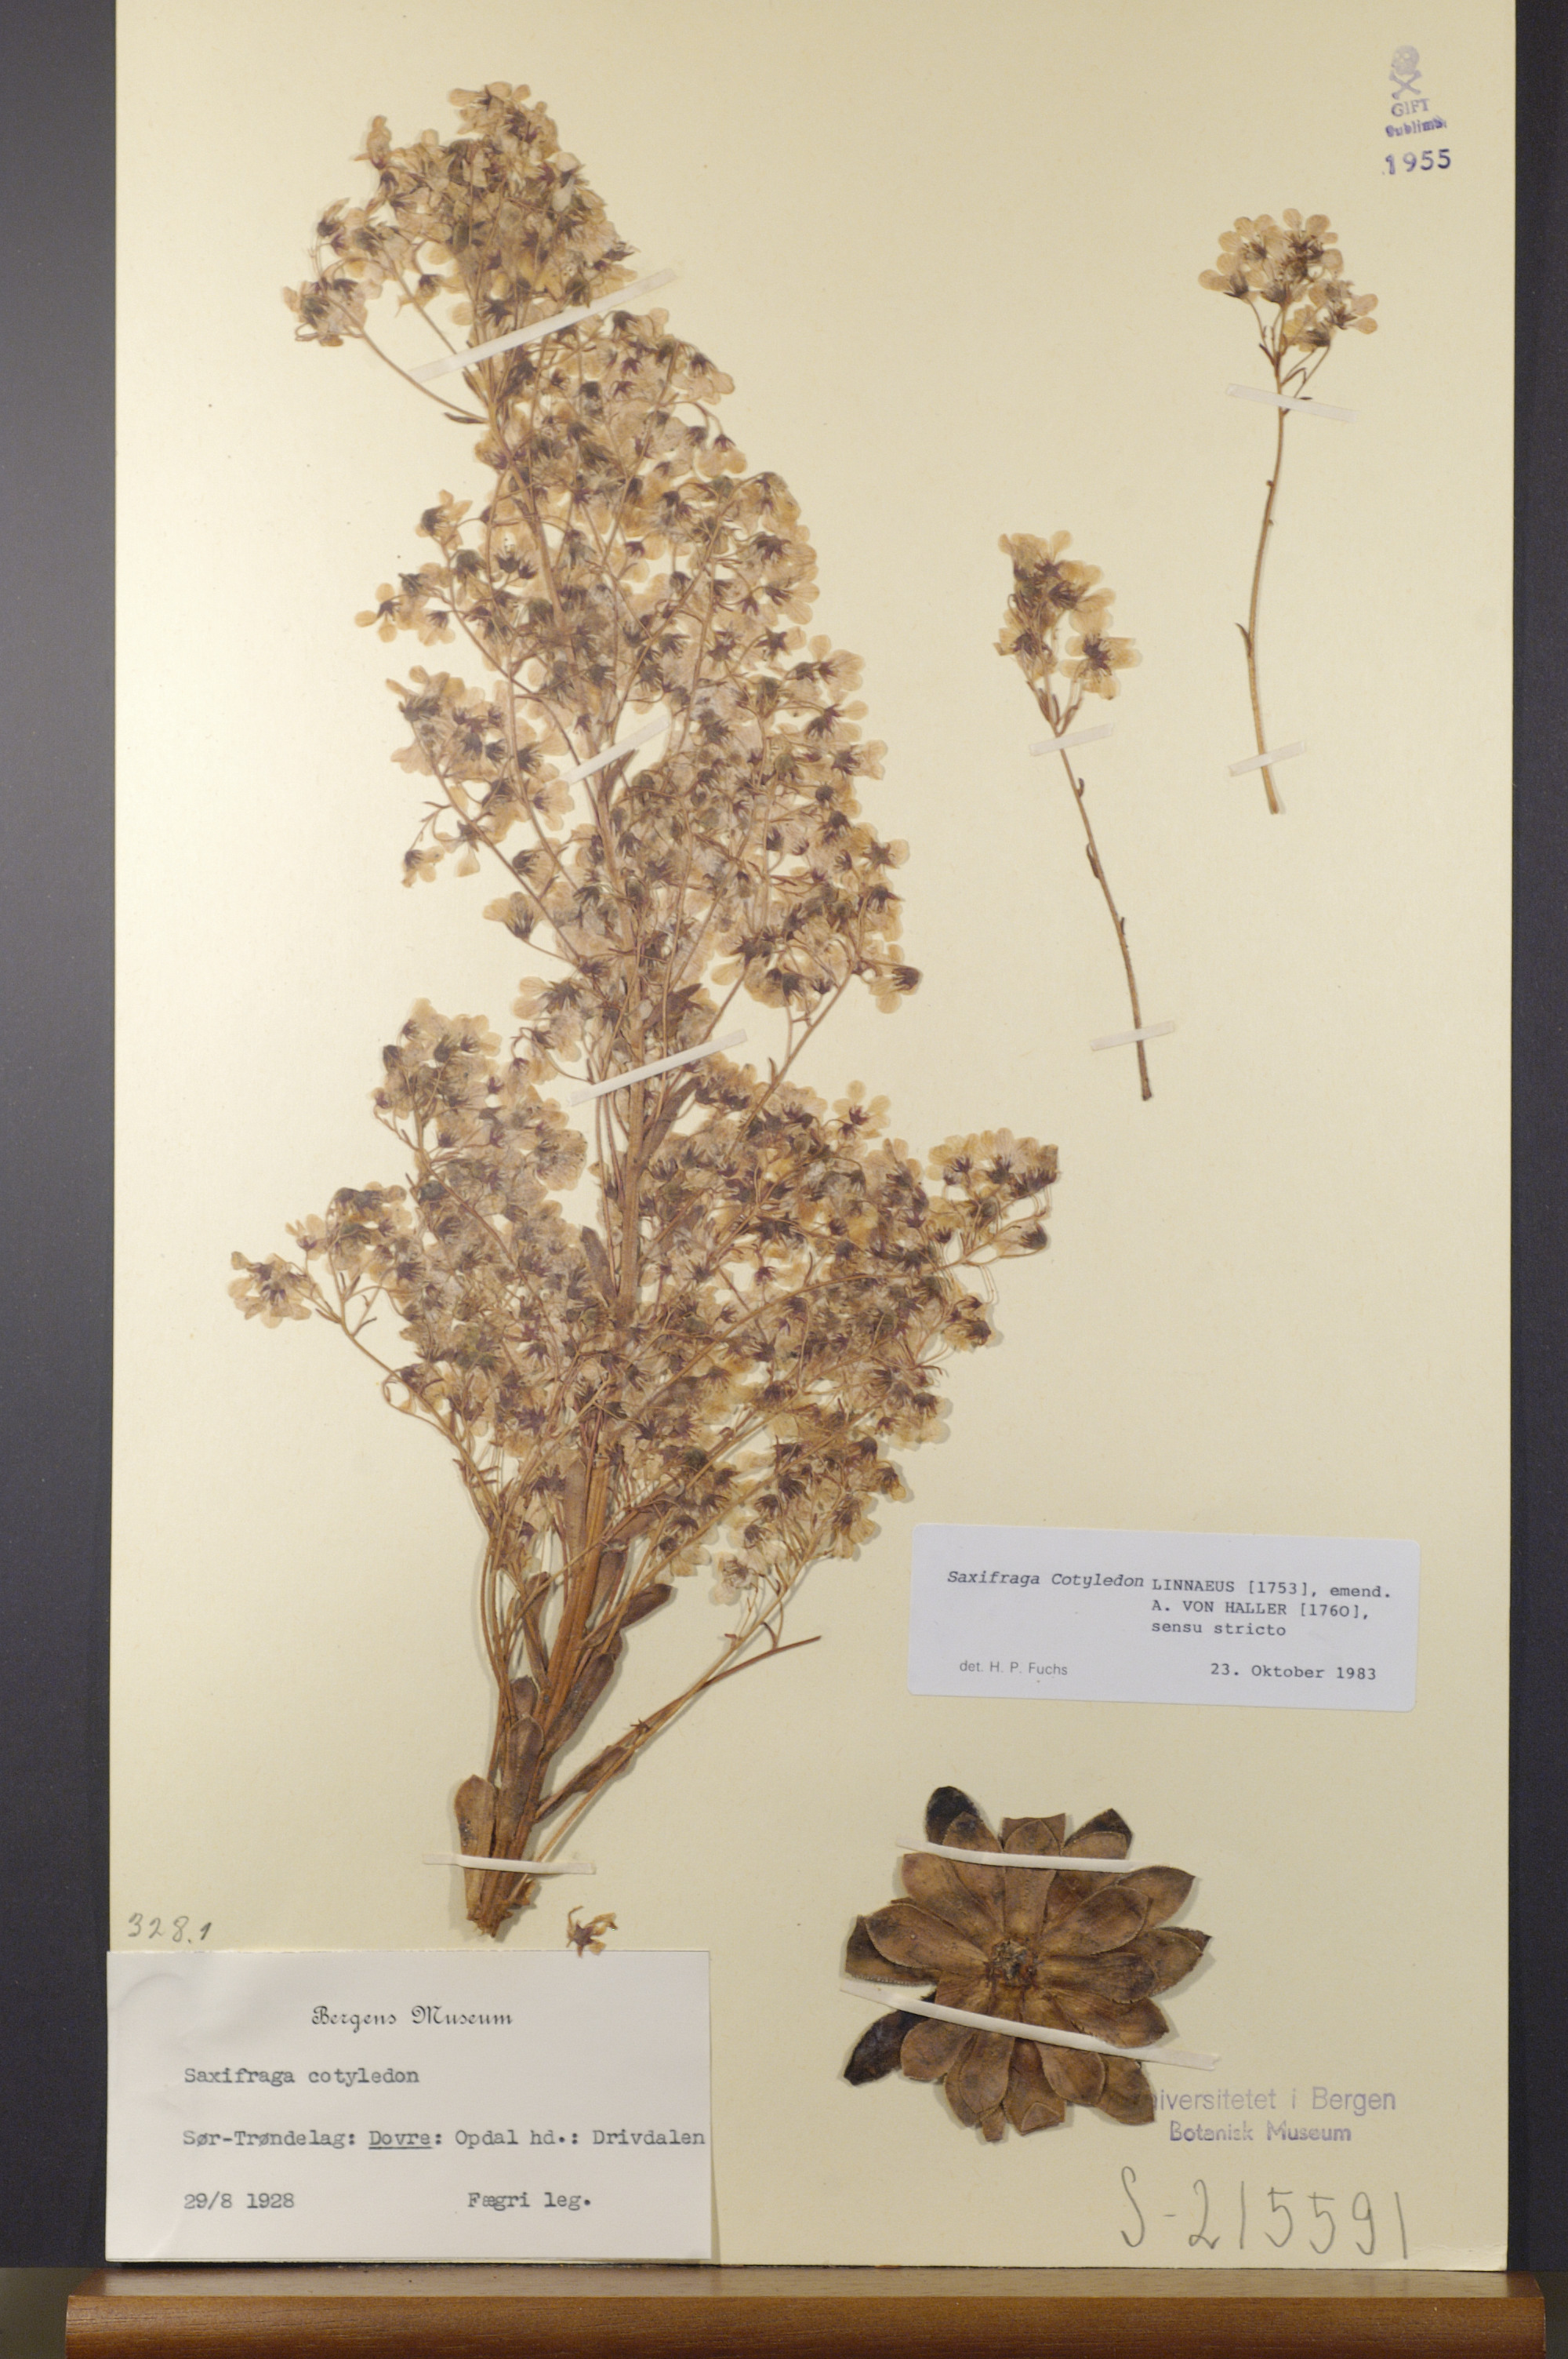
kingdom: Plantae
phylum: Tracheophyta
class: Magnoliopsida
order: Saxifragales
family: Saxifragaceae
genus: Saxifraga
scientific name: Saxifraga cotyledon
